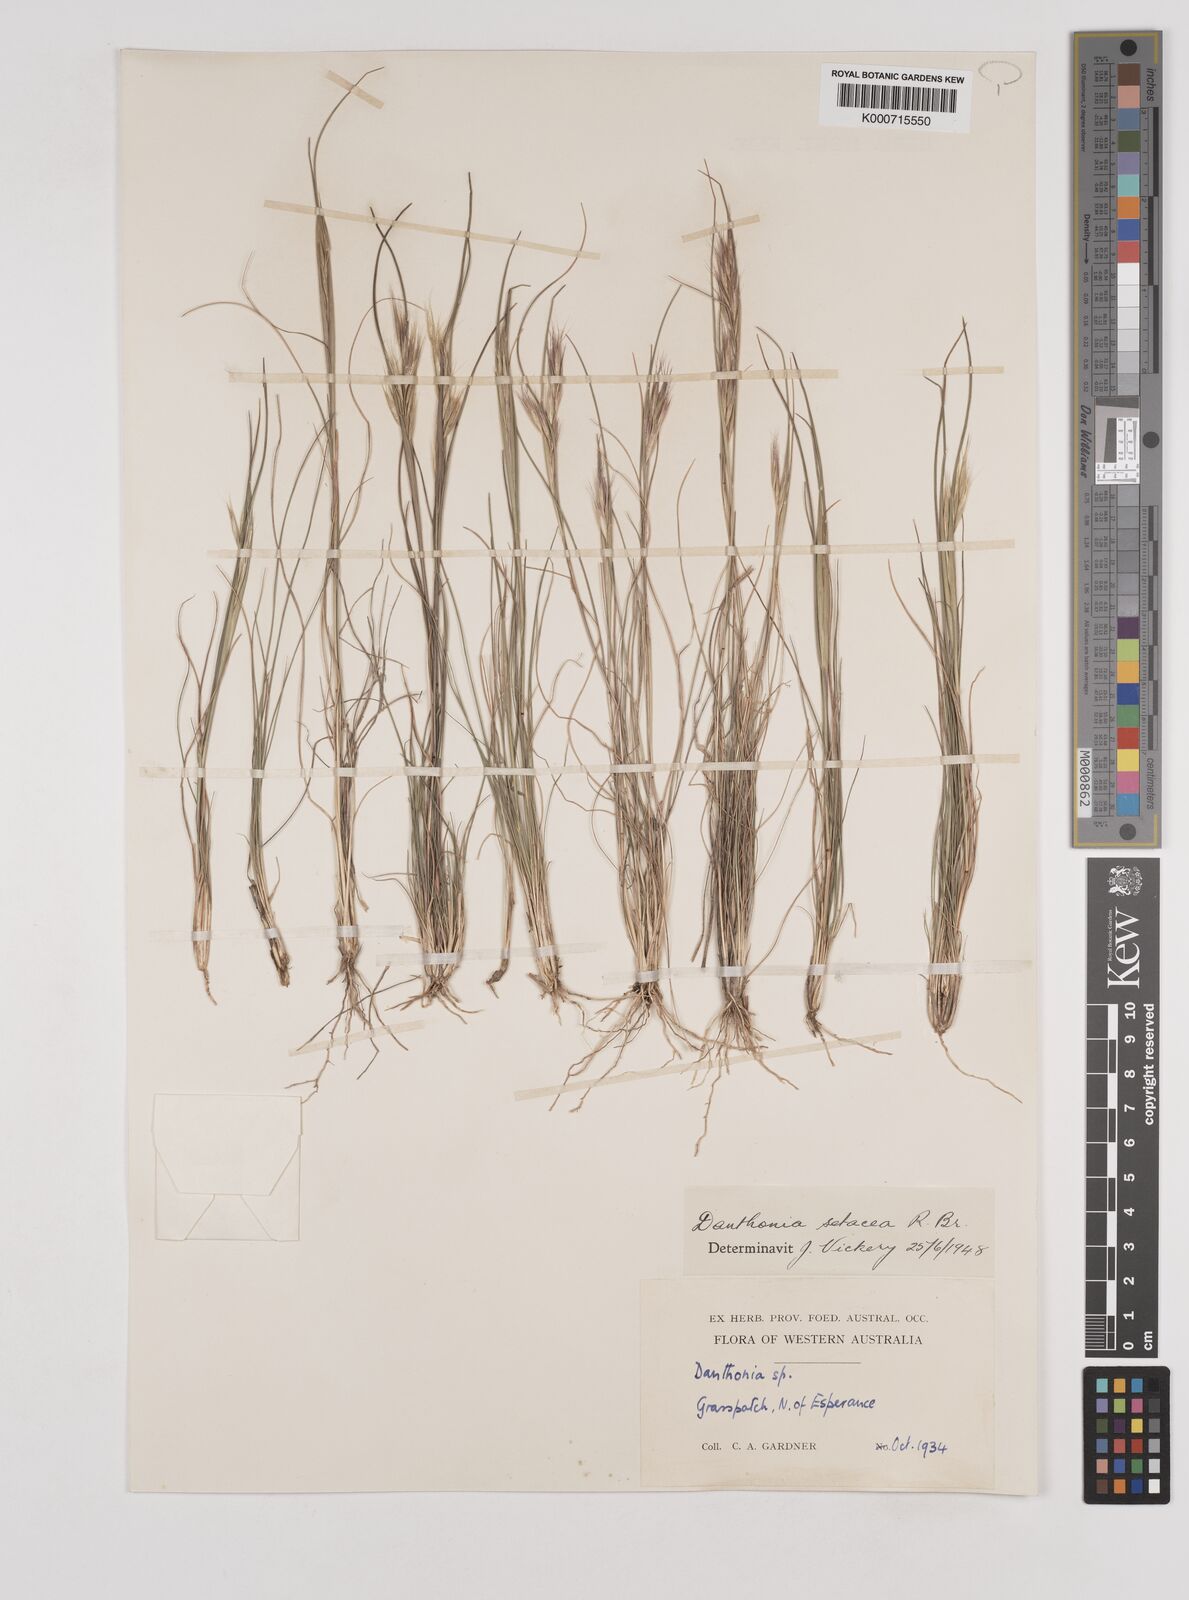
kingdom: Plantae
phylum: Tracheophyta
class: Liliopsida
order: Poales
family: Poaceae
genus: Rytidosperma
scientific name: Rytidosperma setaceum
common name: Small-flower wallaby grass
